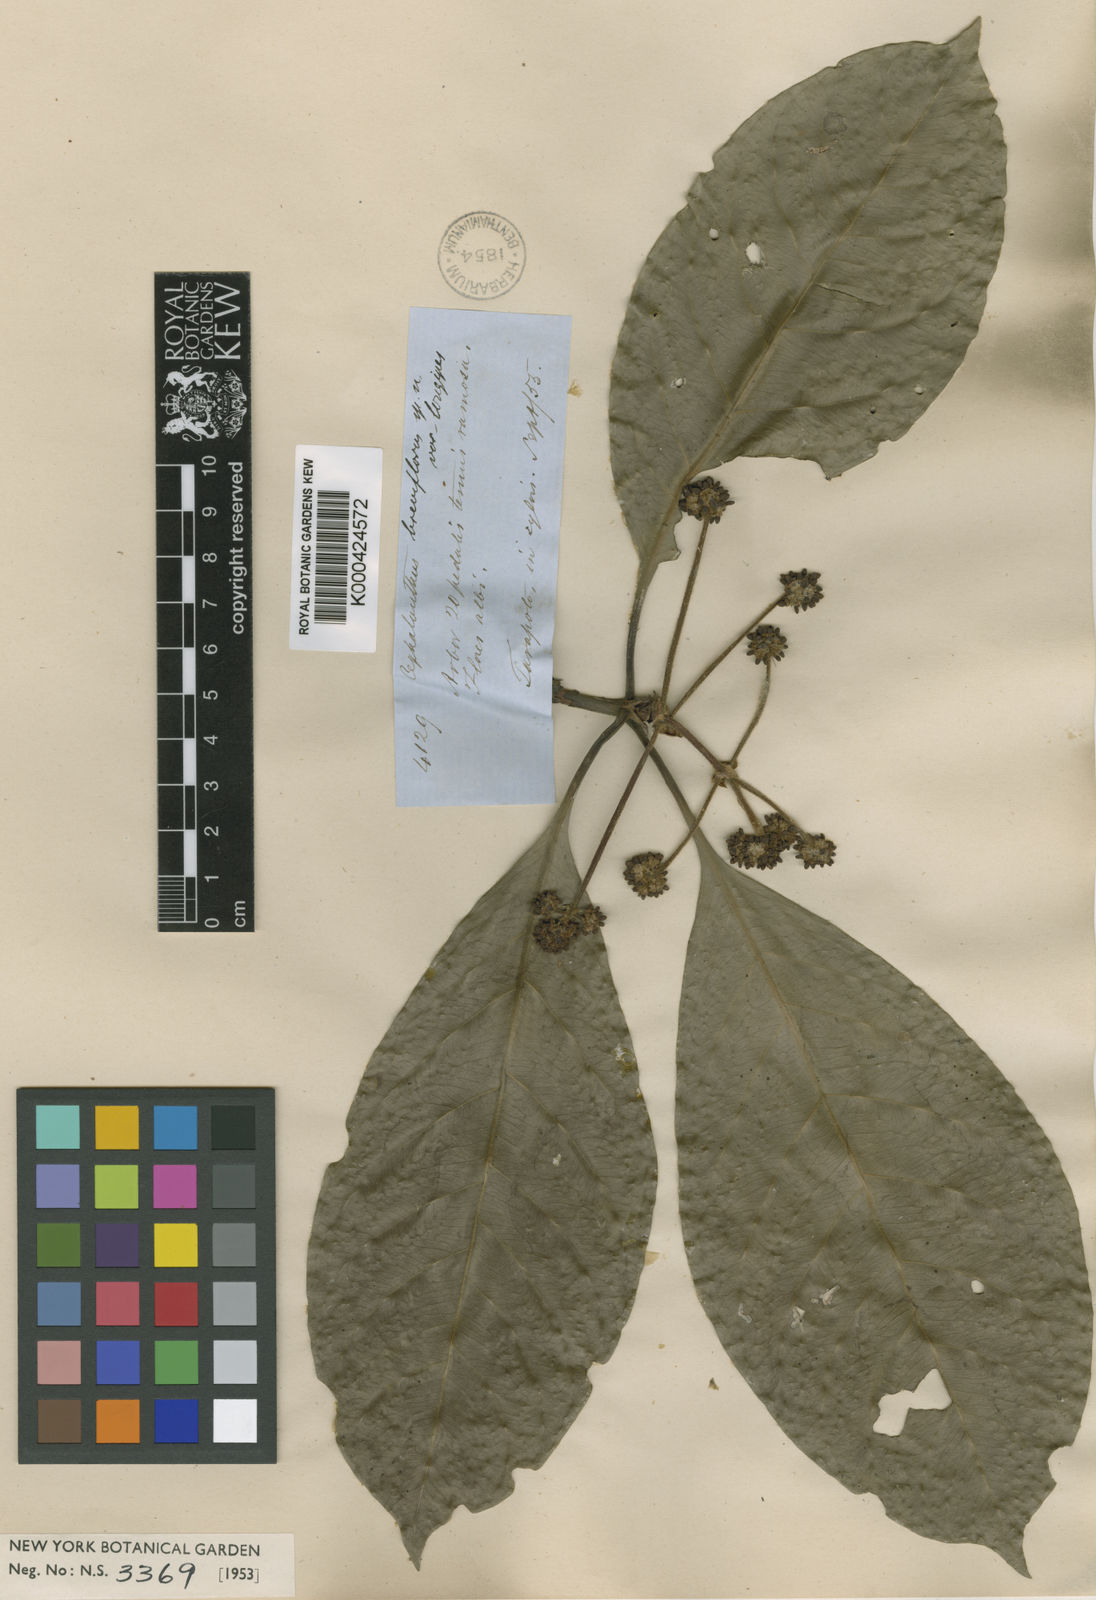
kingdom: Plantae
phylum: Tracheophyta
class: Magnoliopsida
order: Gentianales
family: Rubiaceae
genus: Ixora
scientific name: Ixora peruviana
